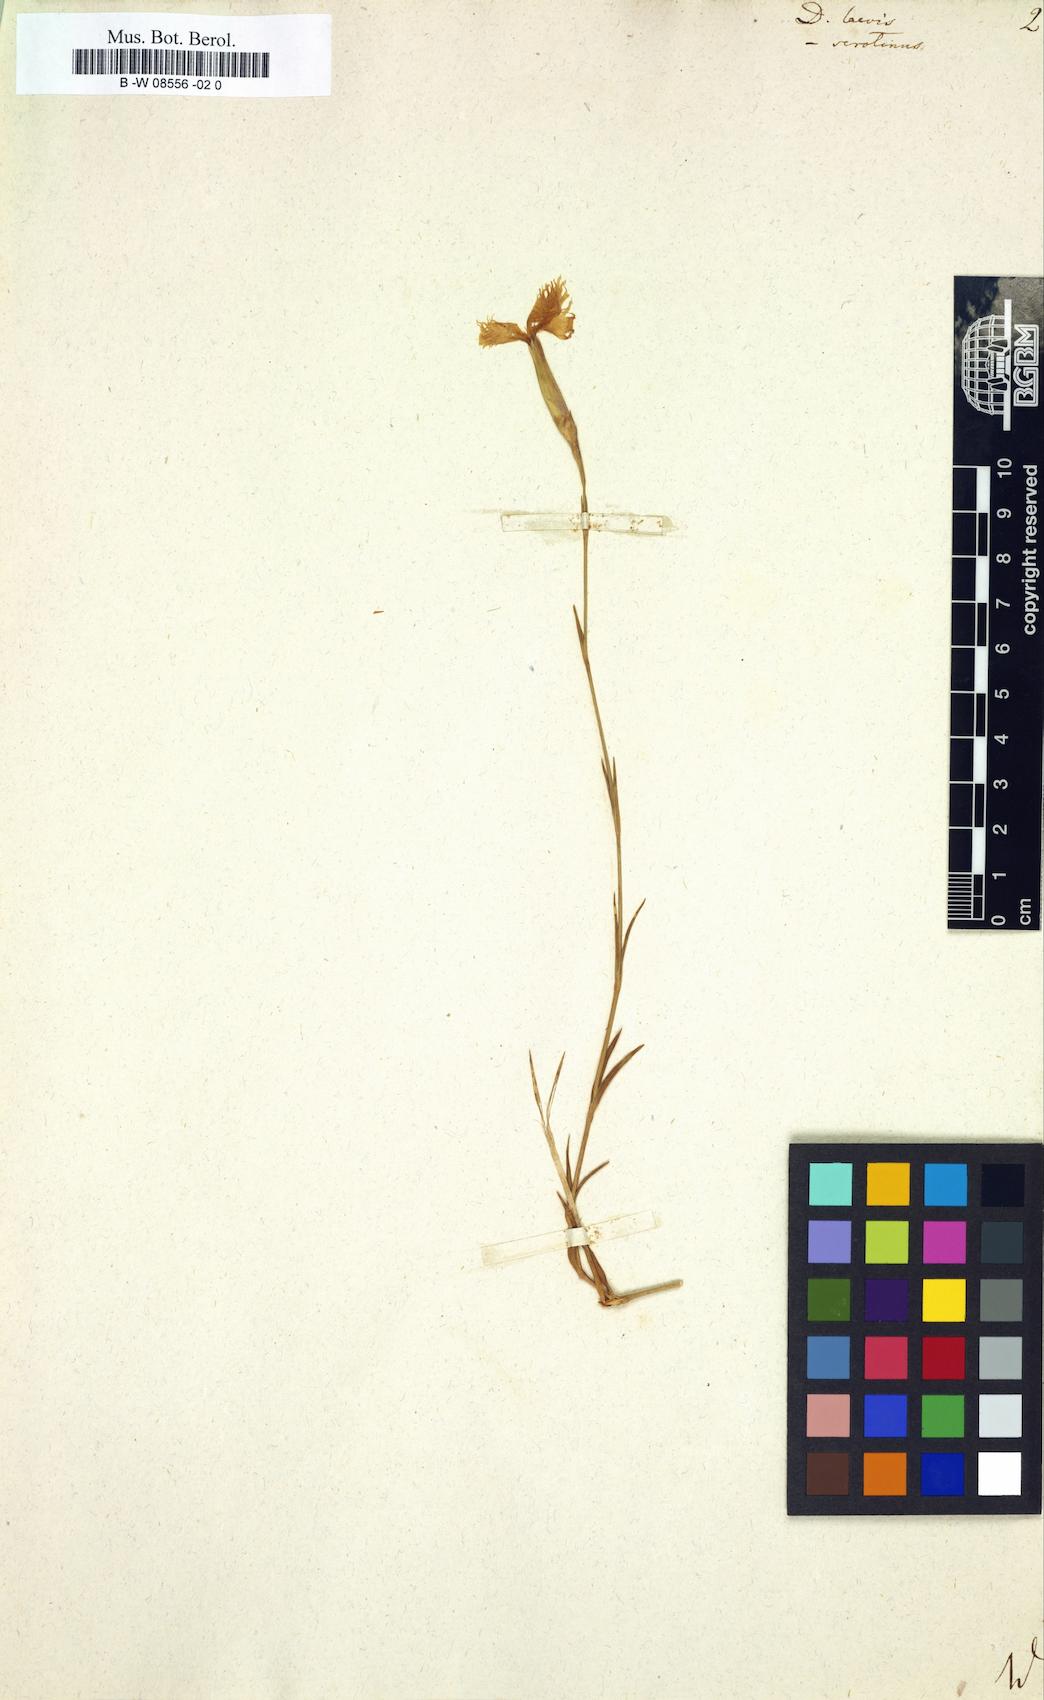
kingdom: Plantae
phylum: Tracheophyta
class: Magnoliopsida
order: Caryophyllales
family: Caryophyllaceae
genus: Dianthus
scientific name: Dianthus
